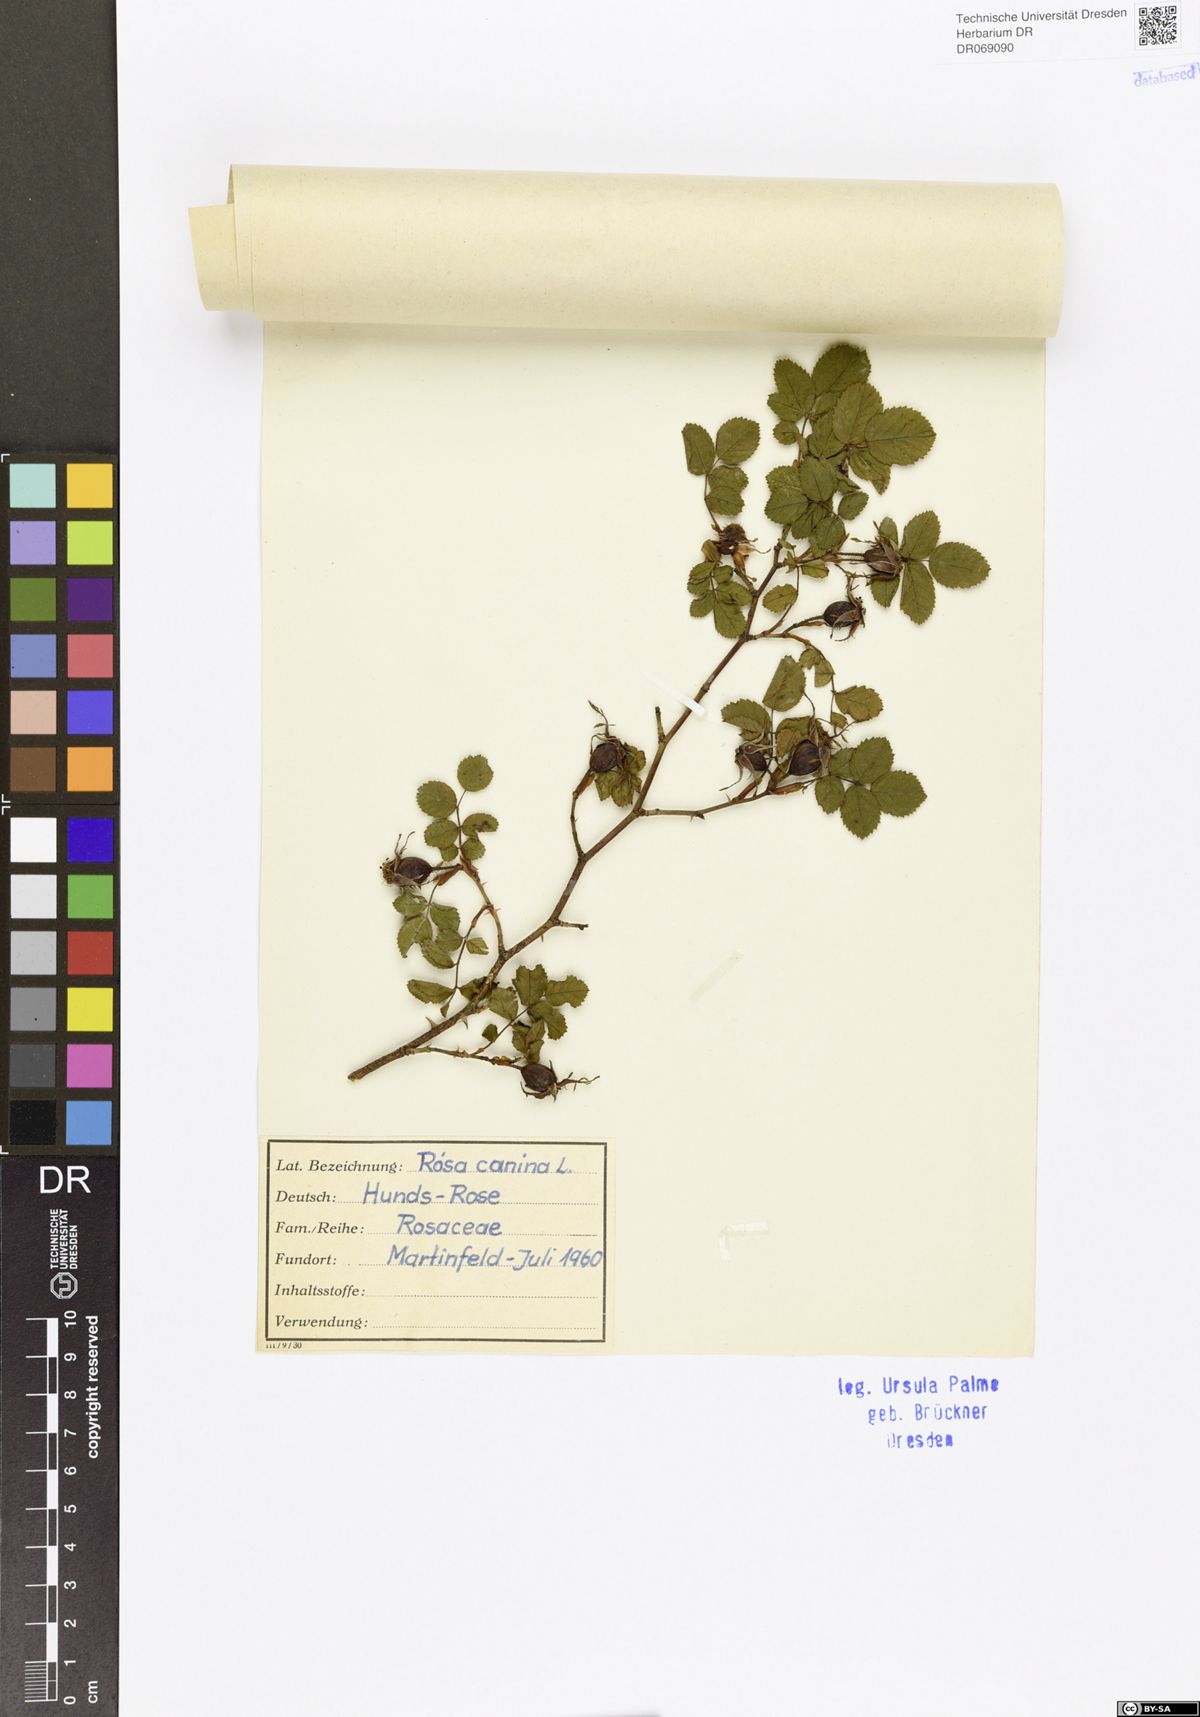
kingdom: Plantae
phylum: Tracheophyta
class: Magnoliopsida
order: Rosales
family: Rosaceae
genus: Rosa
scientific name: Rosa canina
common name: Dog rose
